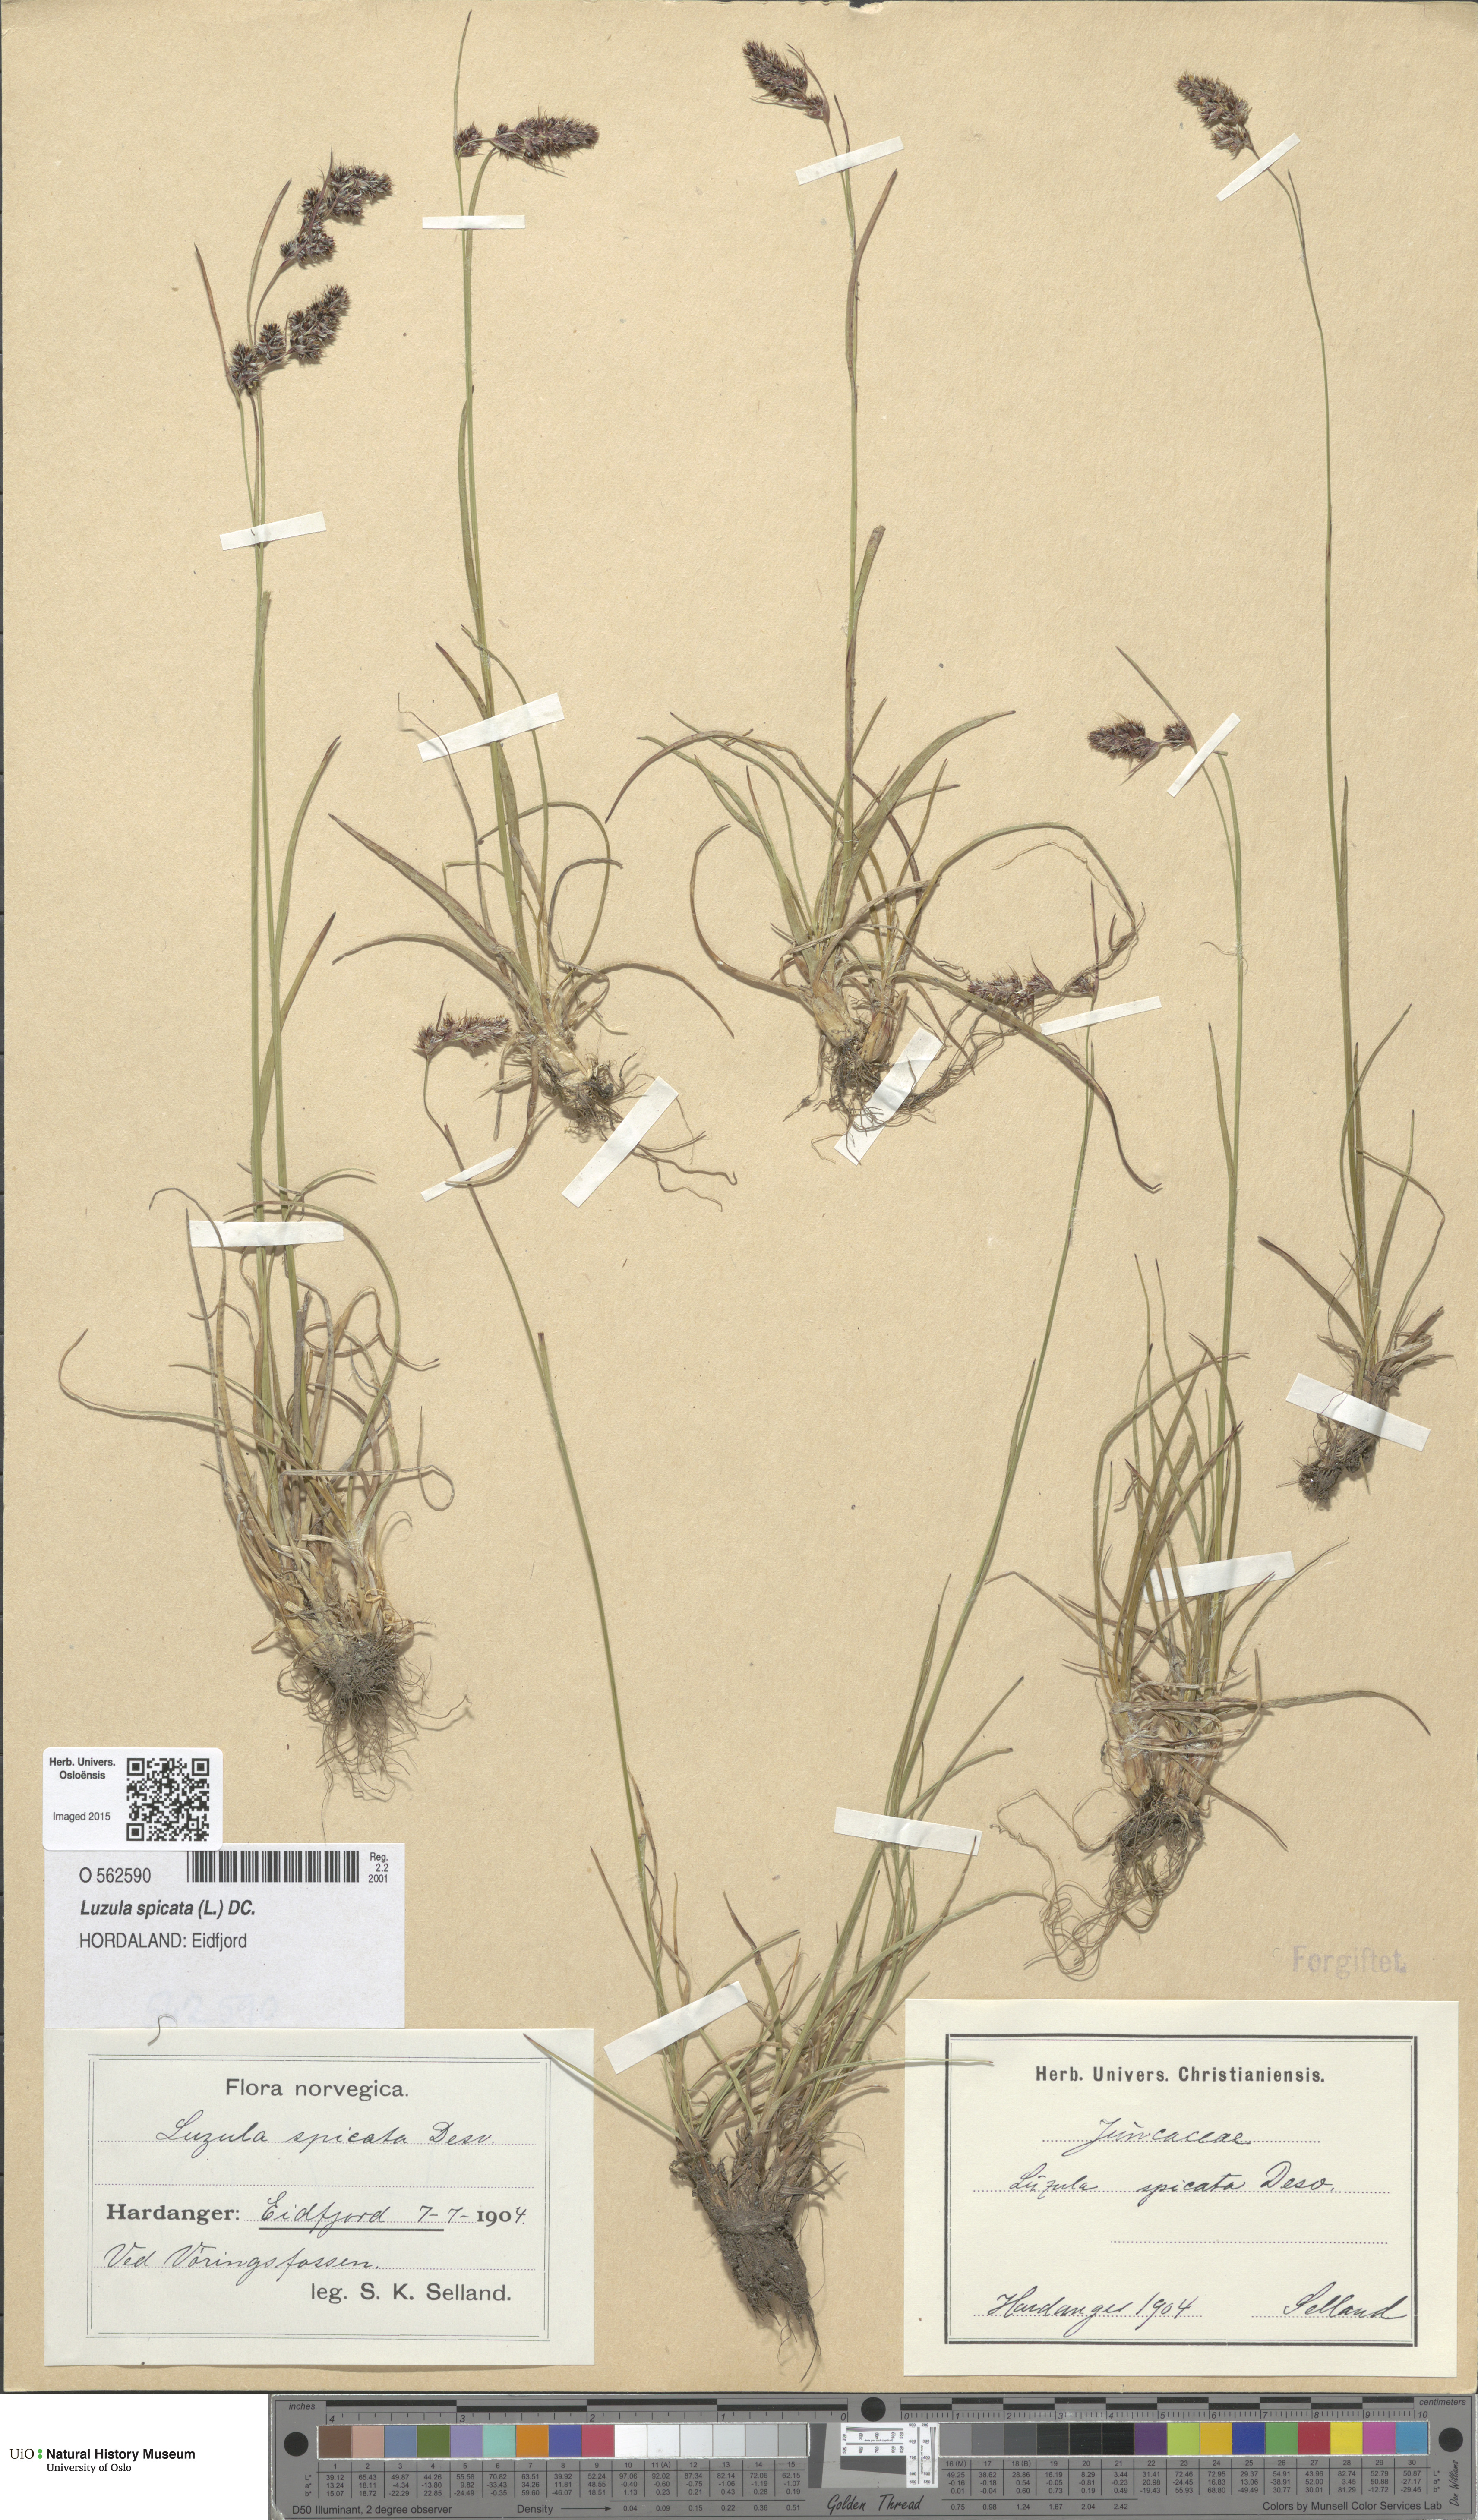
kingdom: Plantae
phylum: Tracheophyta
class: Liliopsida
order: Poales
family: Juncaceae
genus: Luzula
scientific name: Luzula spicata
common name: Spiked wood-rush
